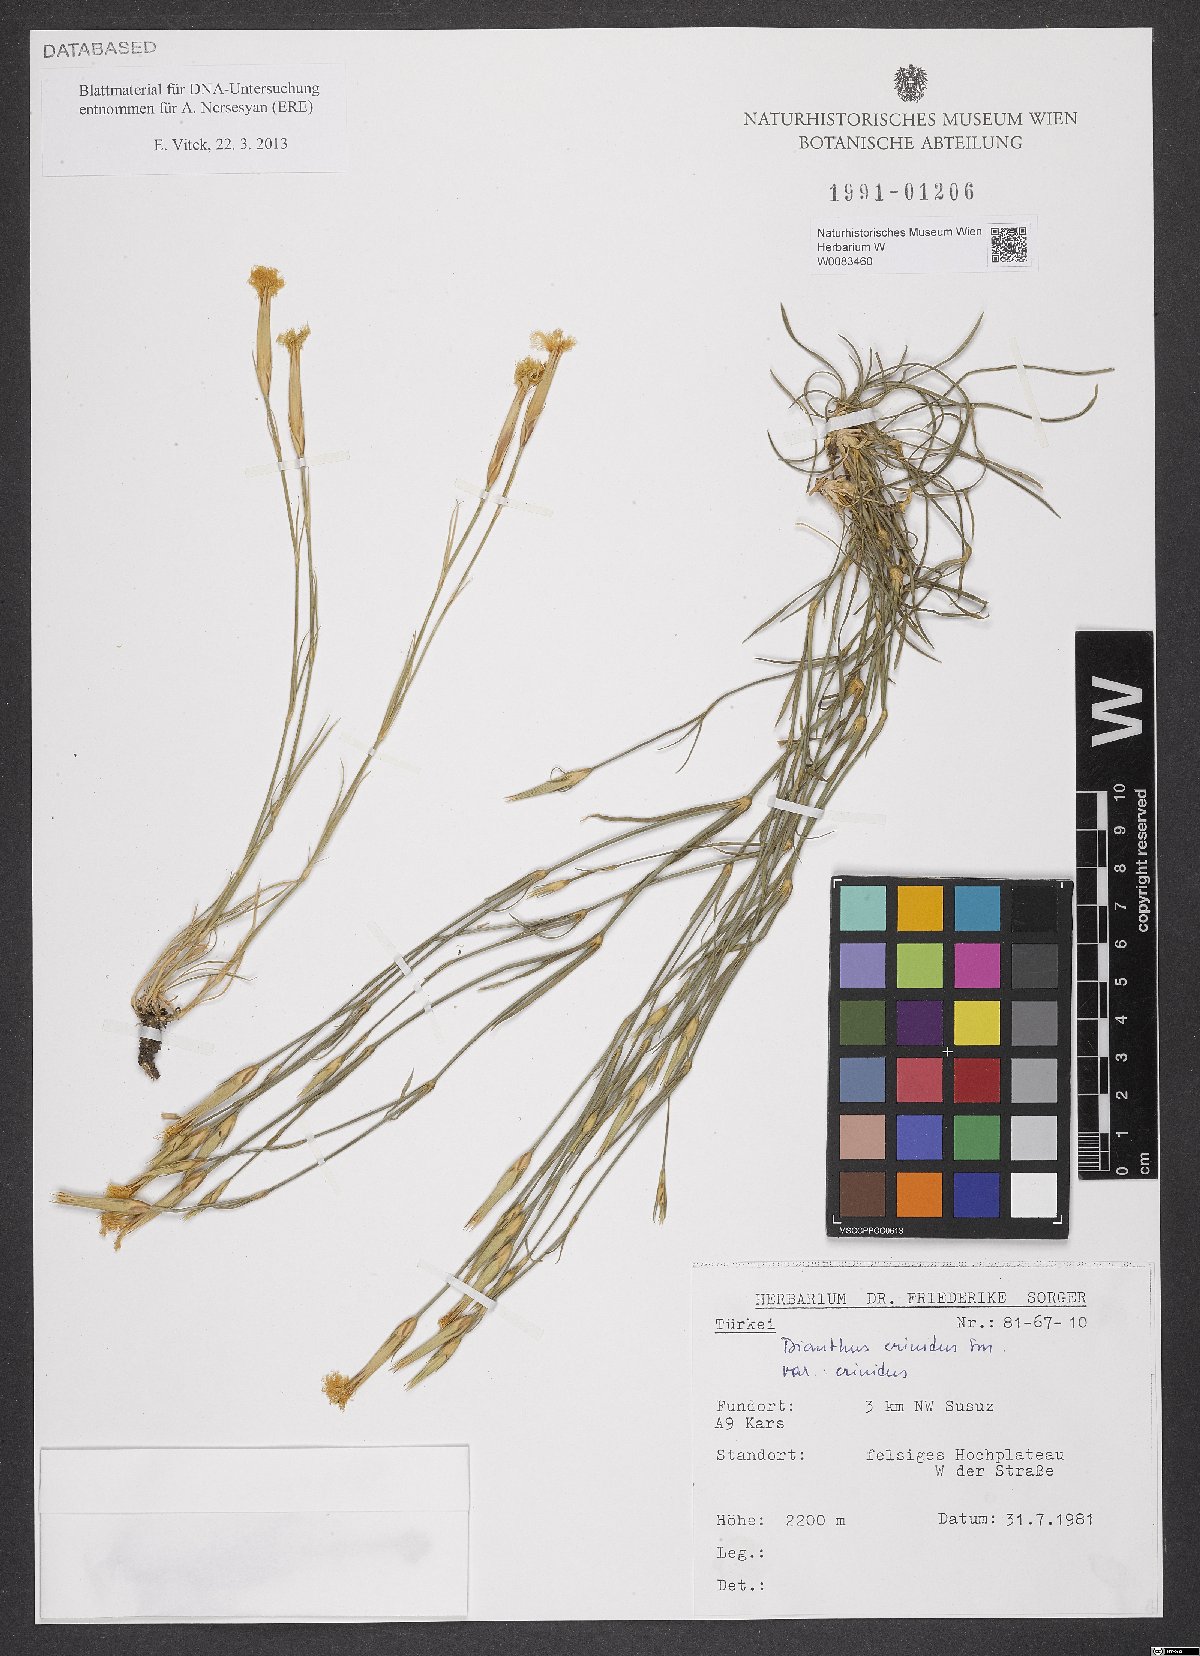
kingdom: Plantae
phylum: Tracheophyta
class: Magnoliopsida
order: Caryophyllales
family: Caryophyllaceae
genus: Dianthus
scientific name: Dianthus crinitus
